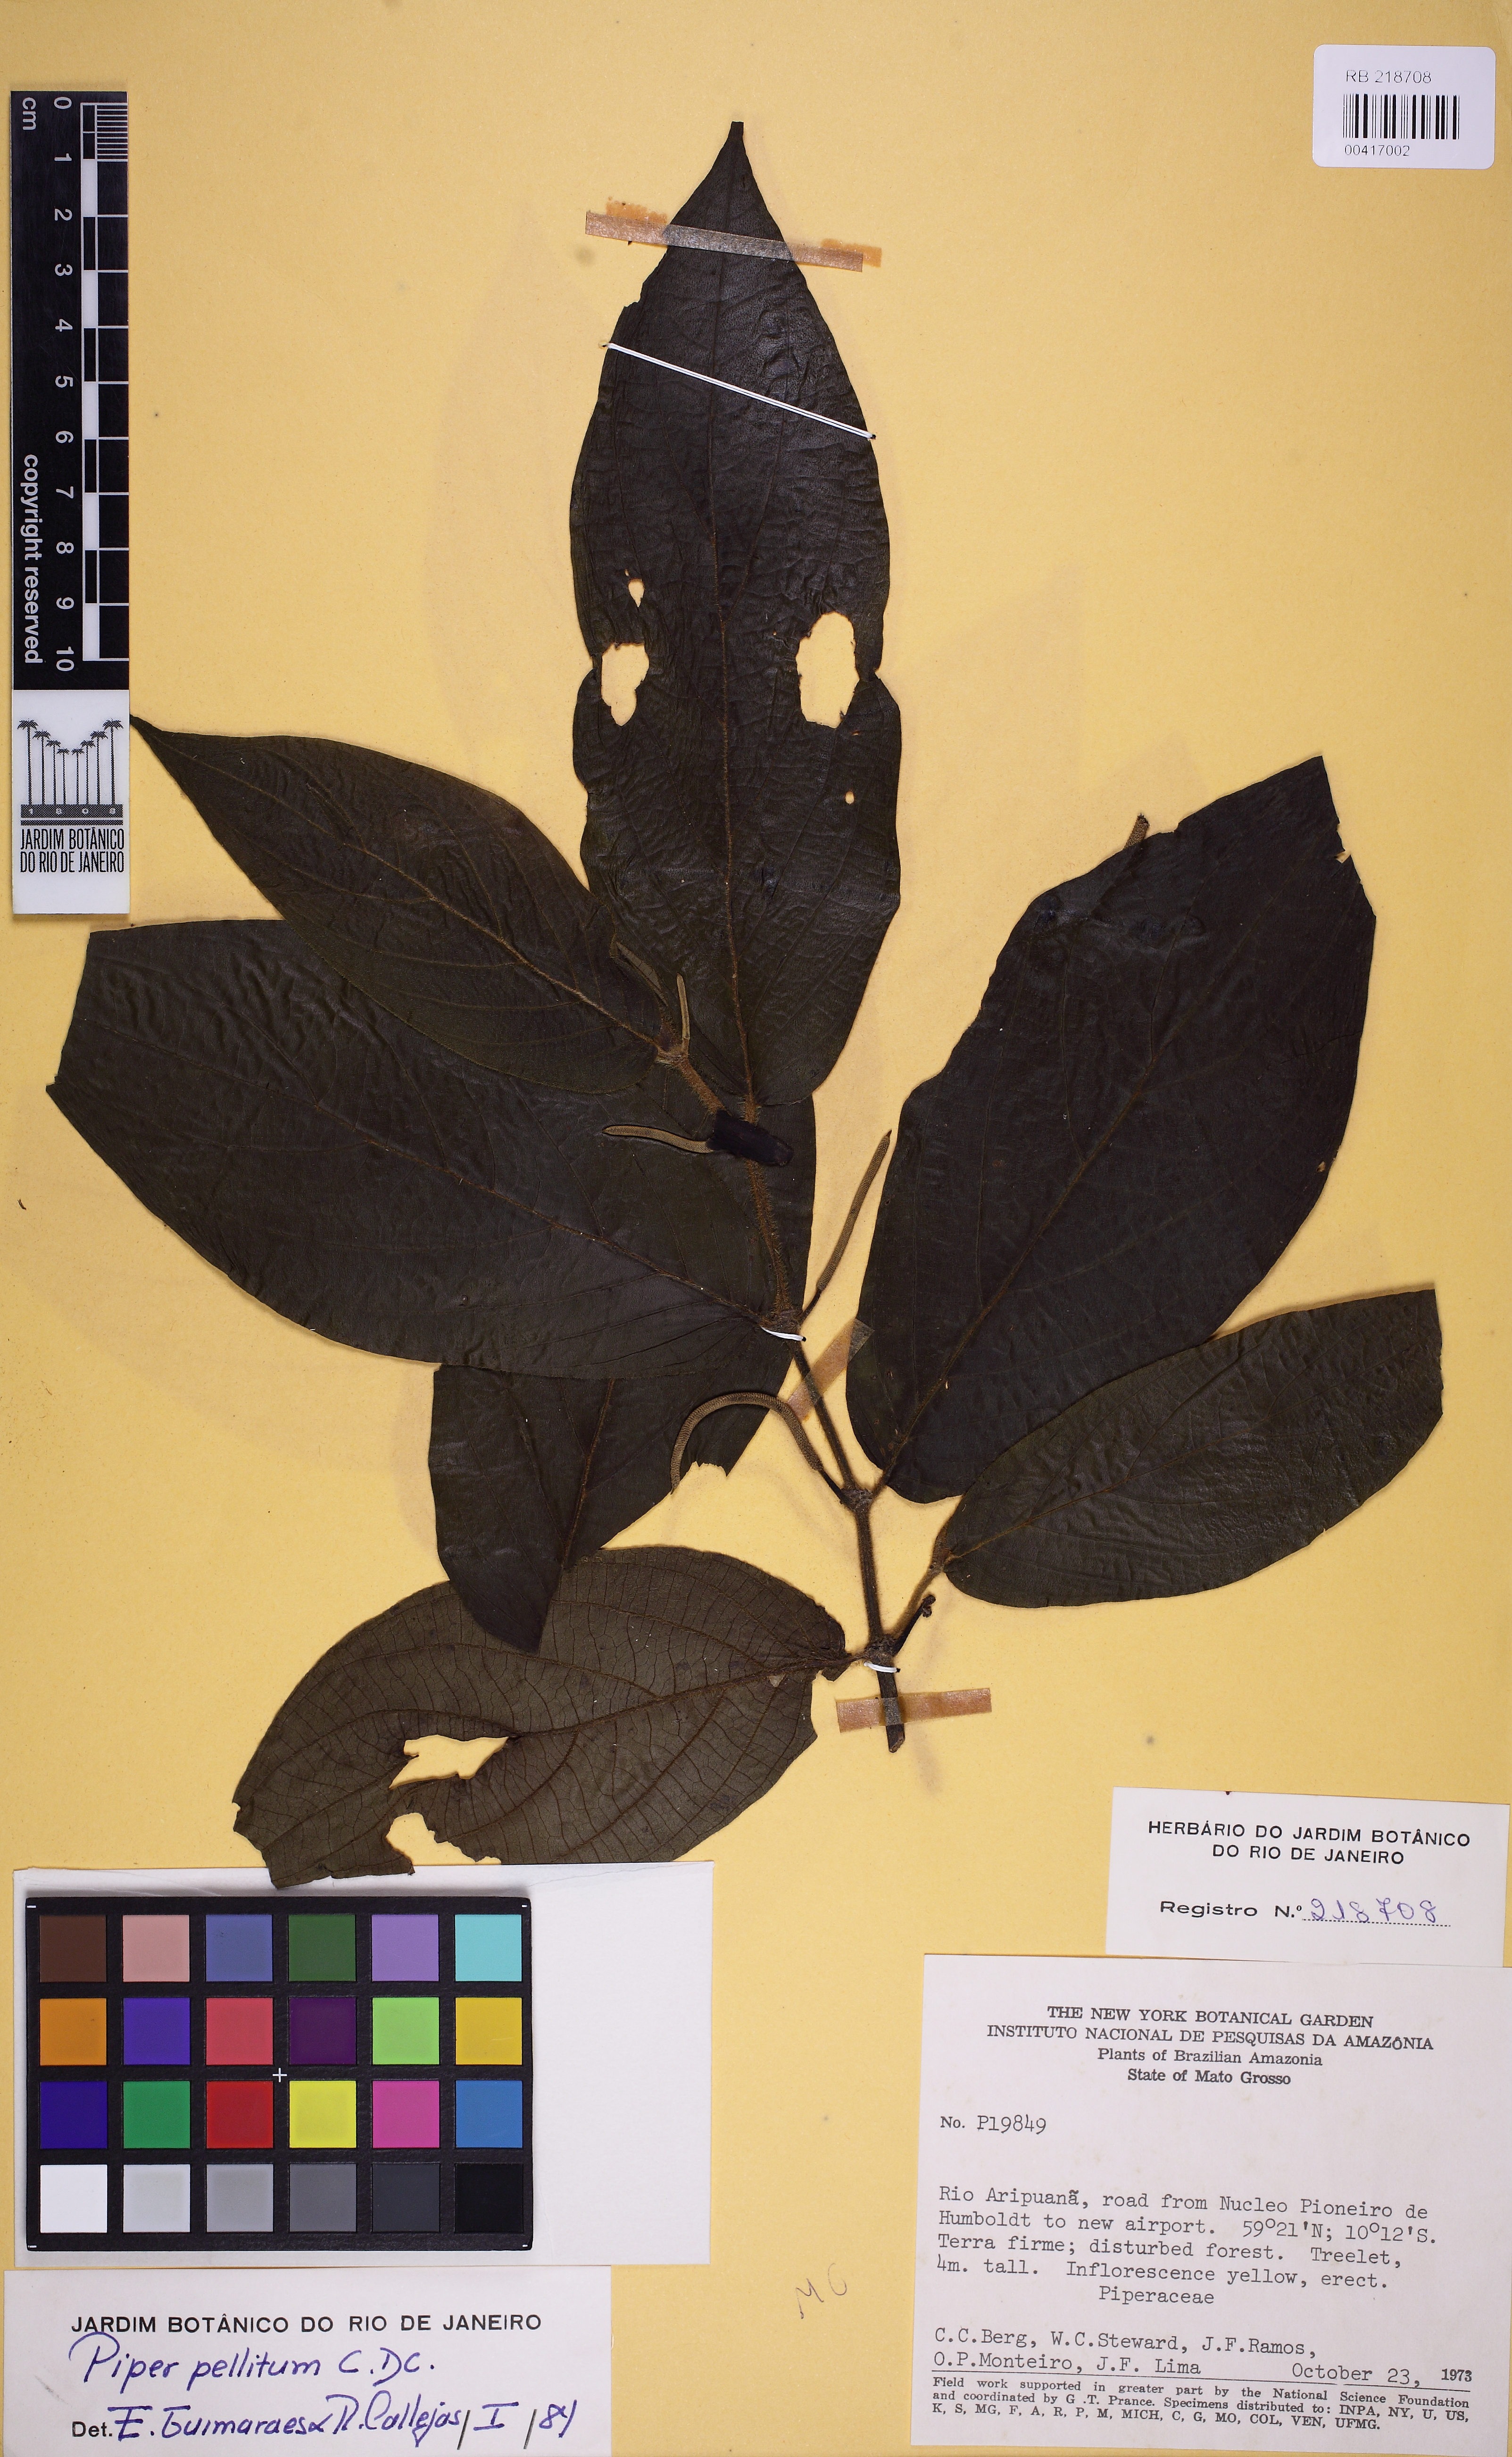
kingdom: Plantae
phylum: Tracheophyta
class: Magnoliopsida
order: Piperales
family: Piperaceae
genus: Piper
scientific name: Piper pellitum
